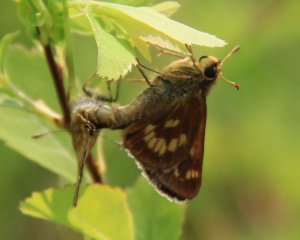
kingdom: Animalia
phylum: Arthropoda
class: Insecta
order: Lepidoptera
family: Hesperiidae
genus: Polites
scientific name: Polites
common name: Long Dash Skipper
